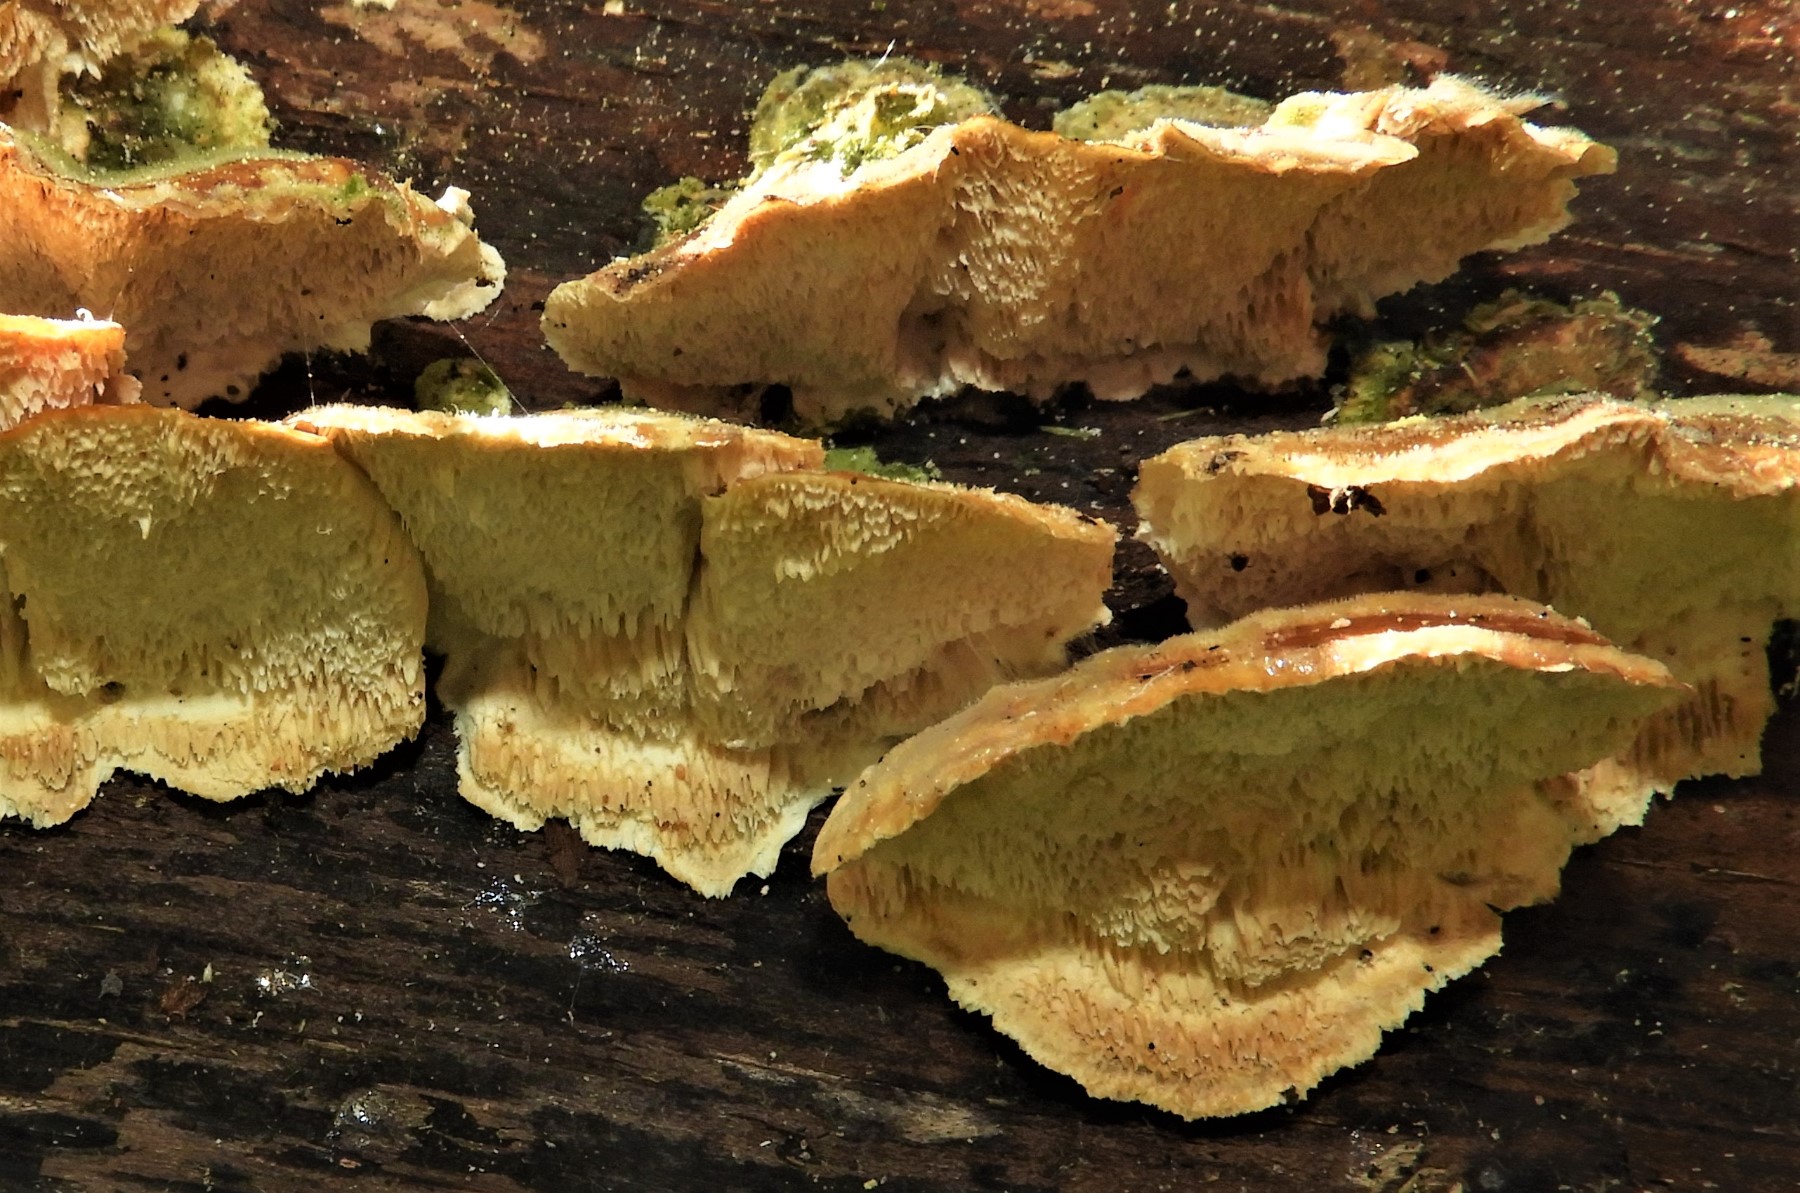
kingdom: Fungi
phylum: Basidiomycota
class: Agaricomycetes
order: Polyporales
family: Polyporaceae
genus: Trametes
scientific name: Trametes
